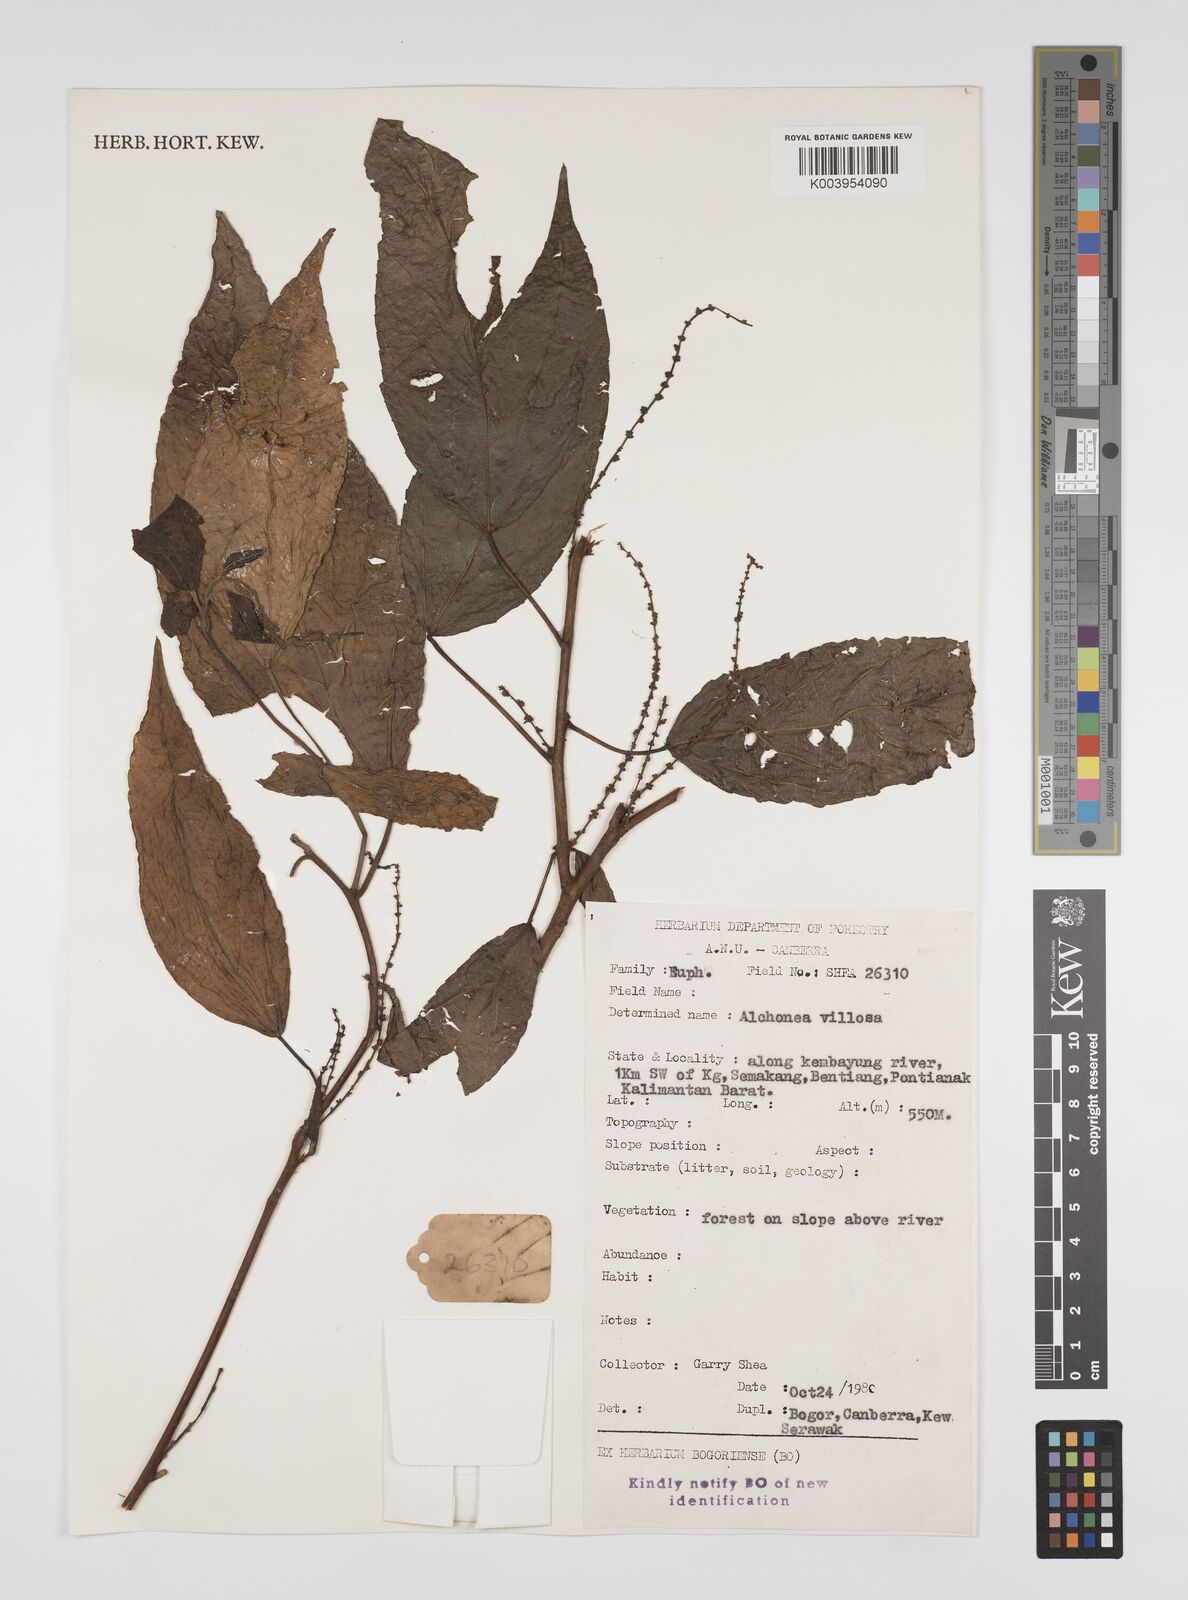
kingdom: Plantae
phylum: Tracheophyta
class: Magnoliopsida
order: Malpighiales
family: Euphorbiaceae
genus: Alchornea
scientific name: Alchornea tiliifolia
